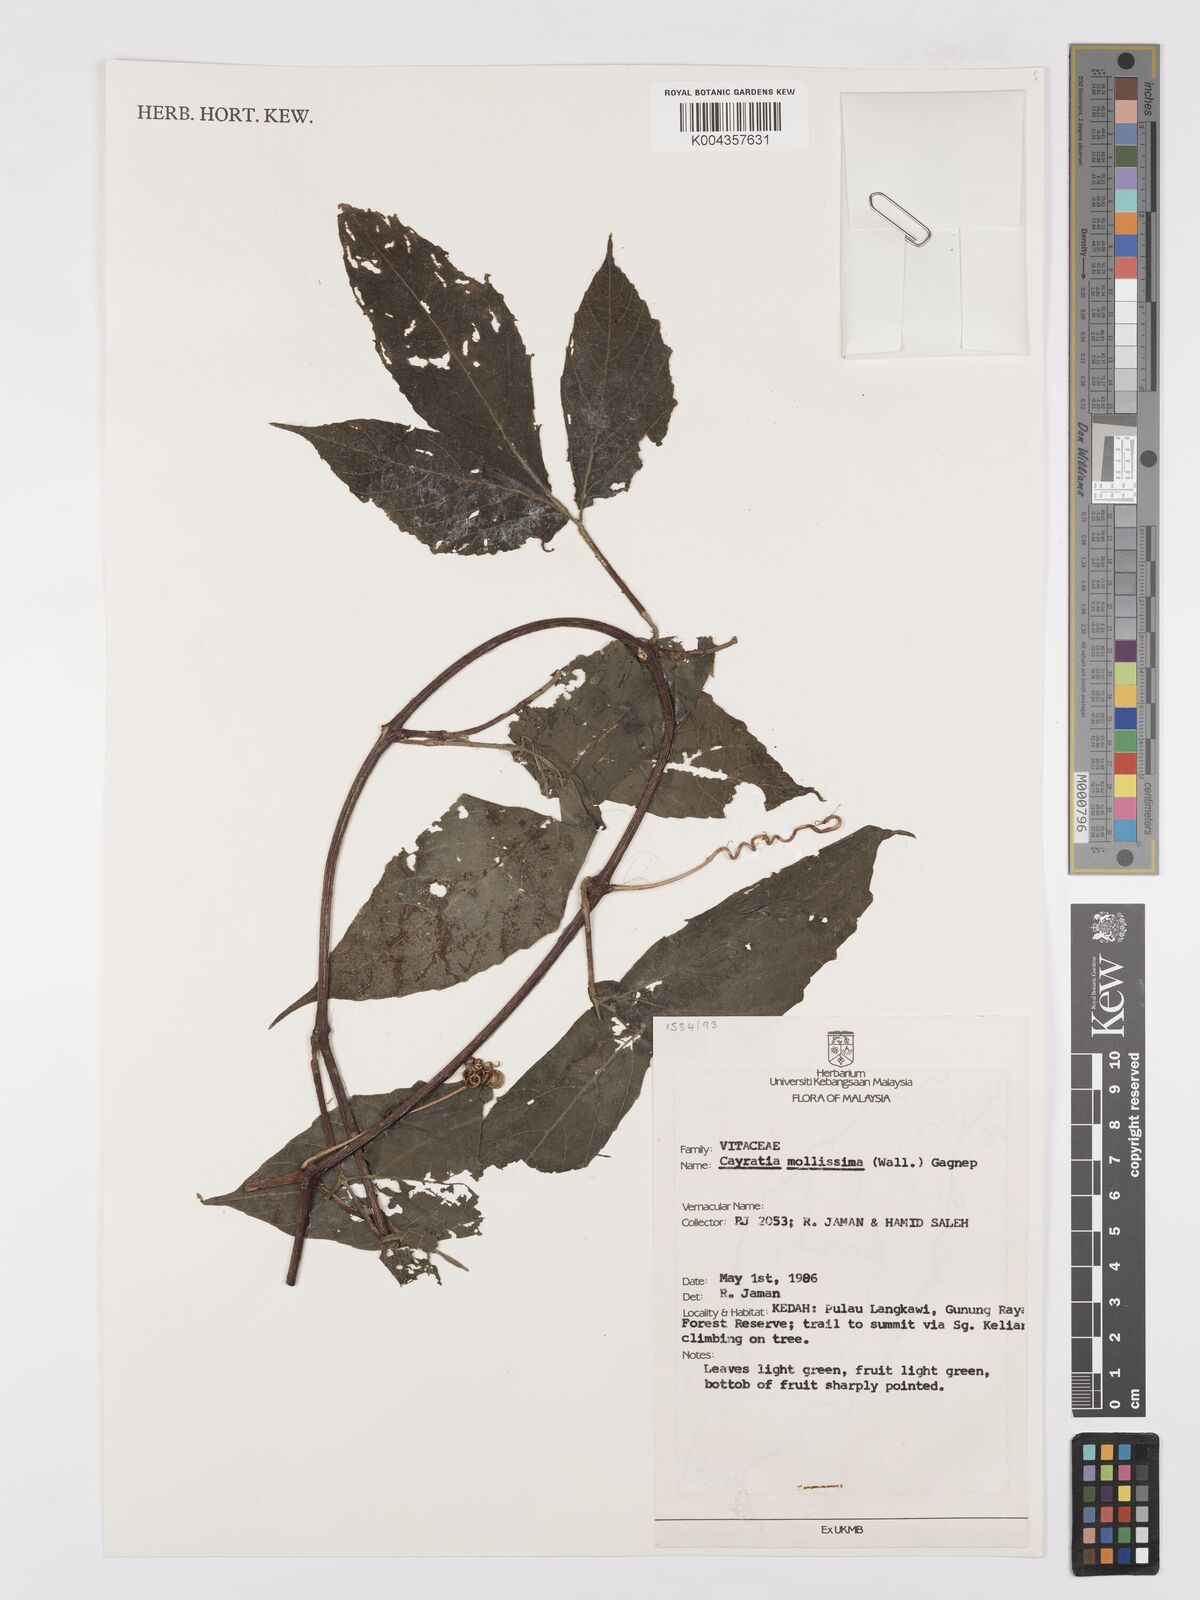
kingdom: Plantae
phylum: Tracheophyta
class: Magnoliopsida
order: Vitales
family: Vitaceae
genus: Cayratia
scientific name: Cayratia mollissima
